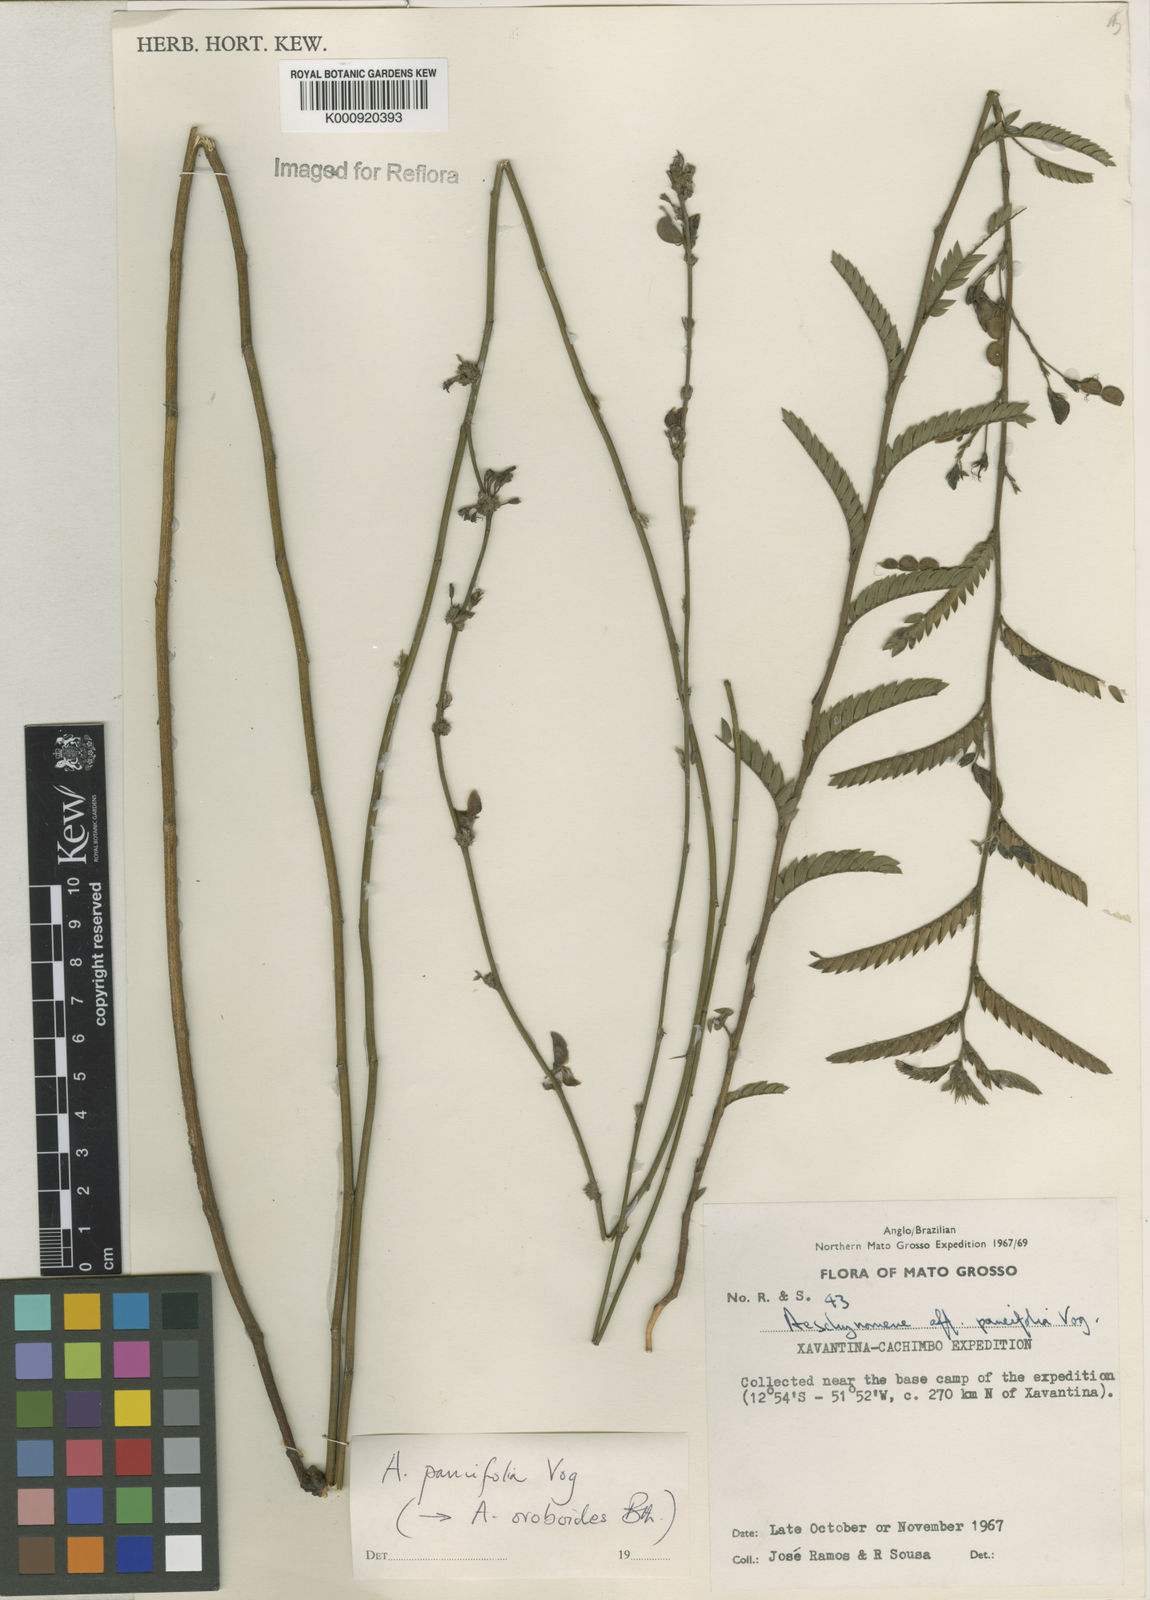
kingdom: Plantae
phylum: Tracheophyta
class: Magnoliopsida
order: Fabales
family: Fabaceae
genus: Ctenodon
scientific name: Ctenodon paucifolius
